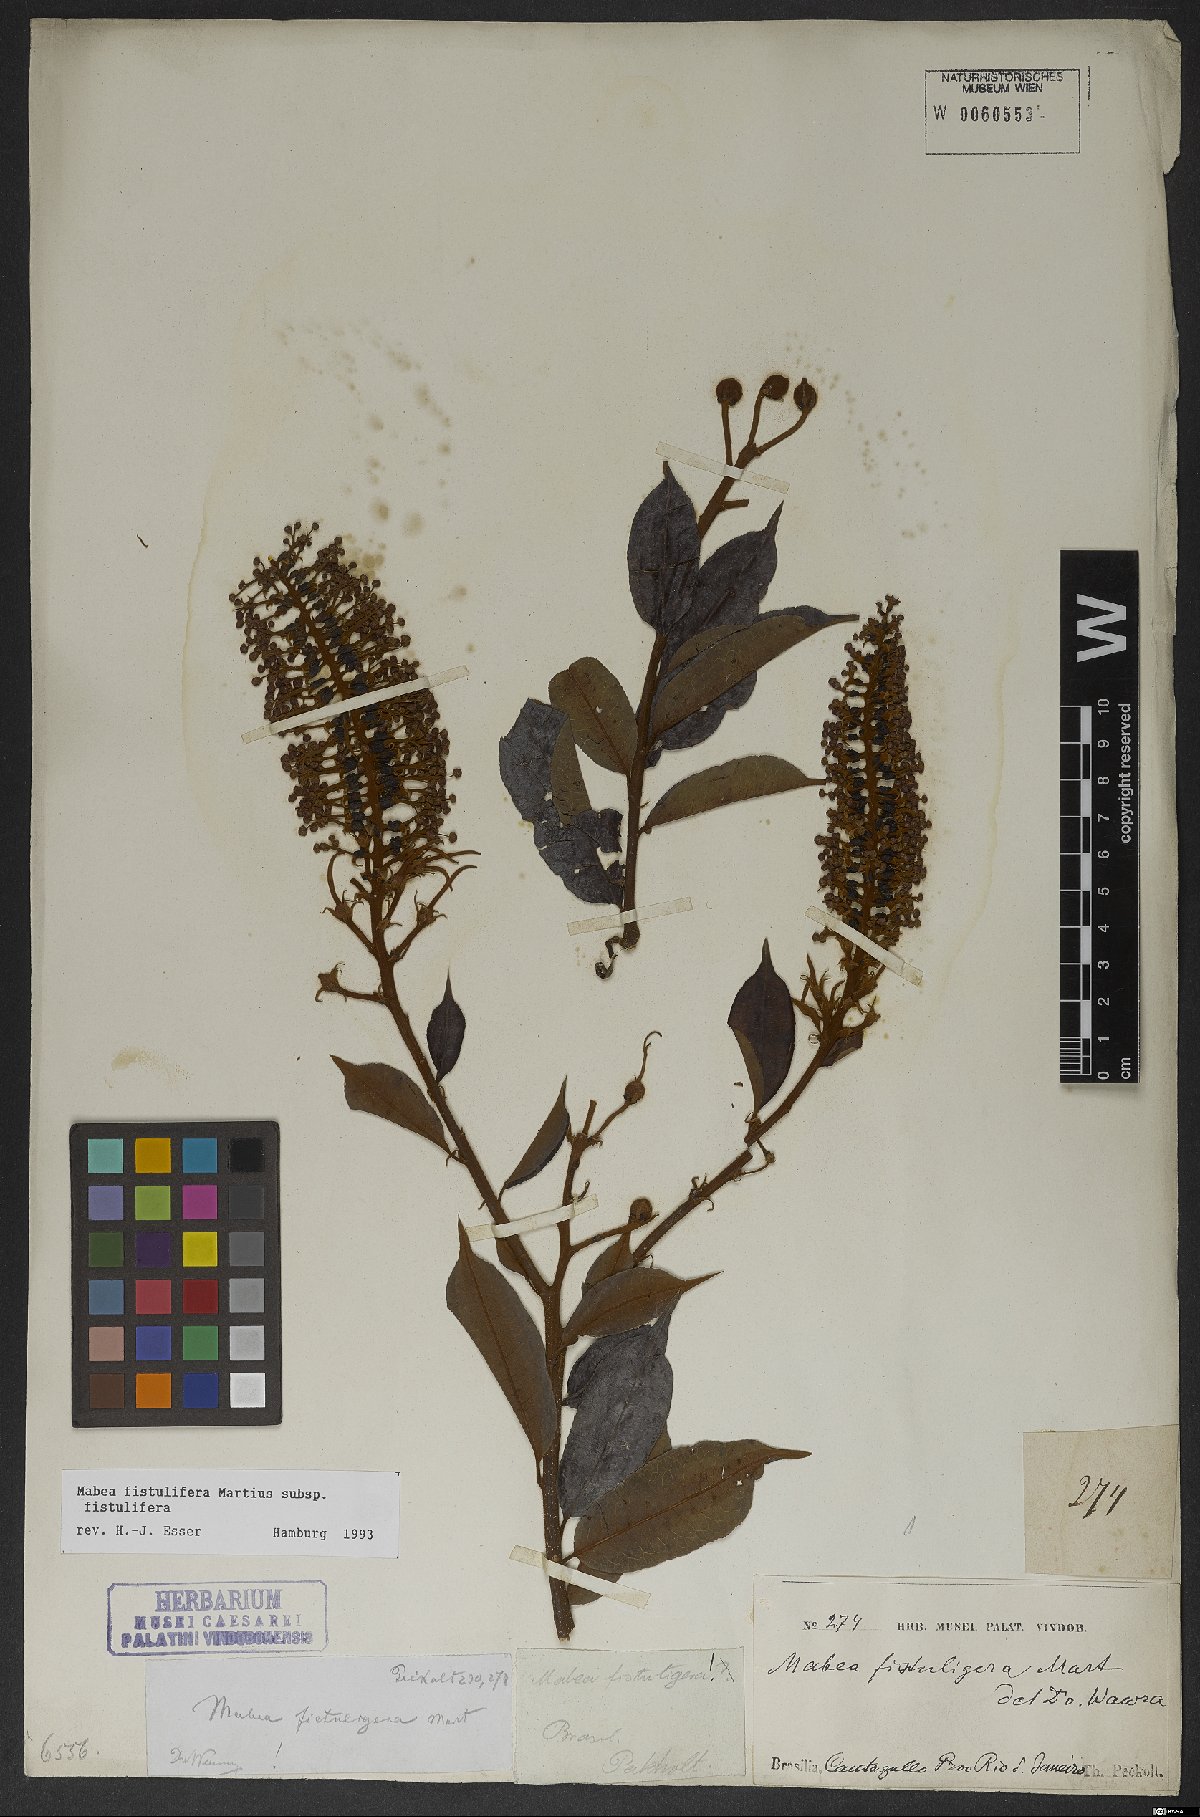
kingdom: Plantae
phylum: Tracheophyta
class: Magnoliopsida
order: Malpighiales
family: Euphorbiaceae
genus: Mabea
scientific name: Mabea fistulifera
